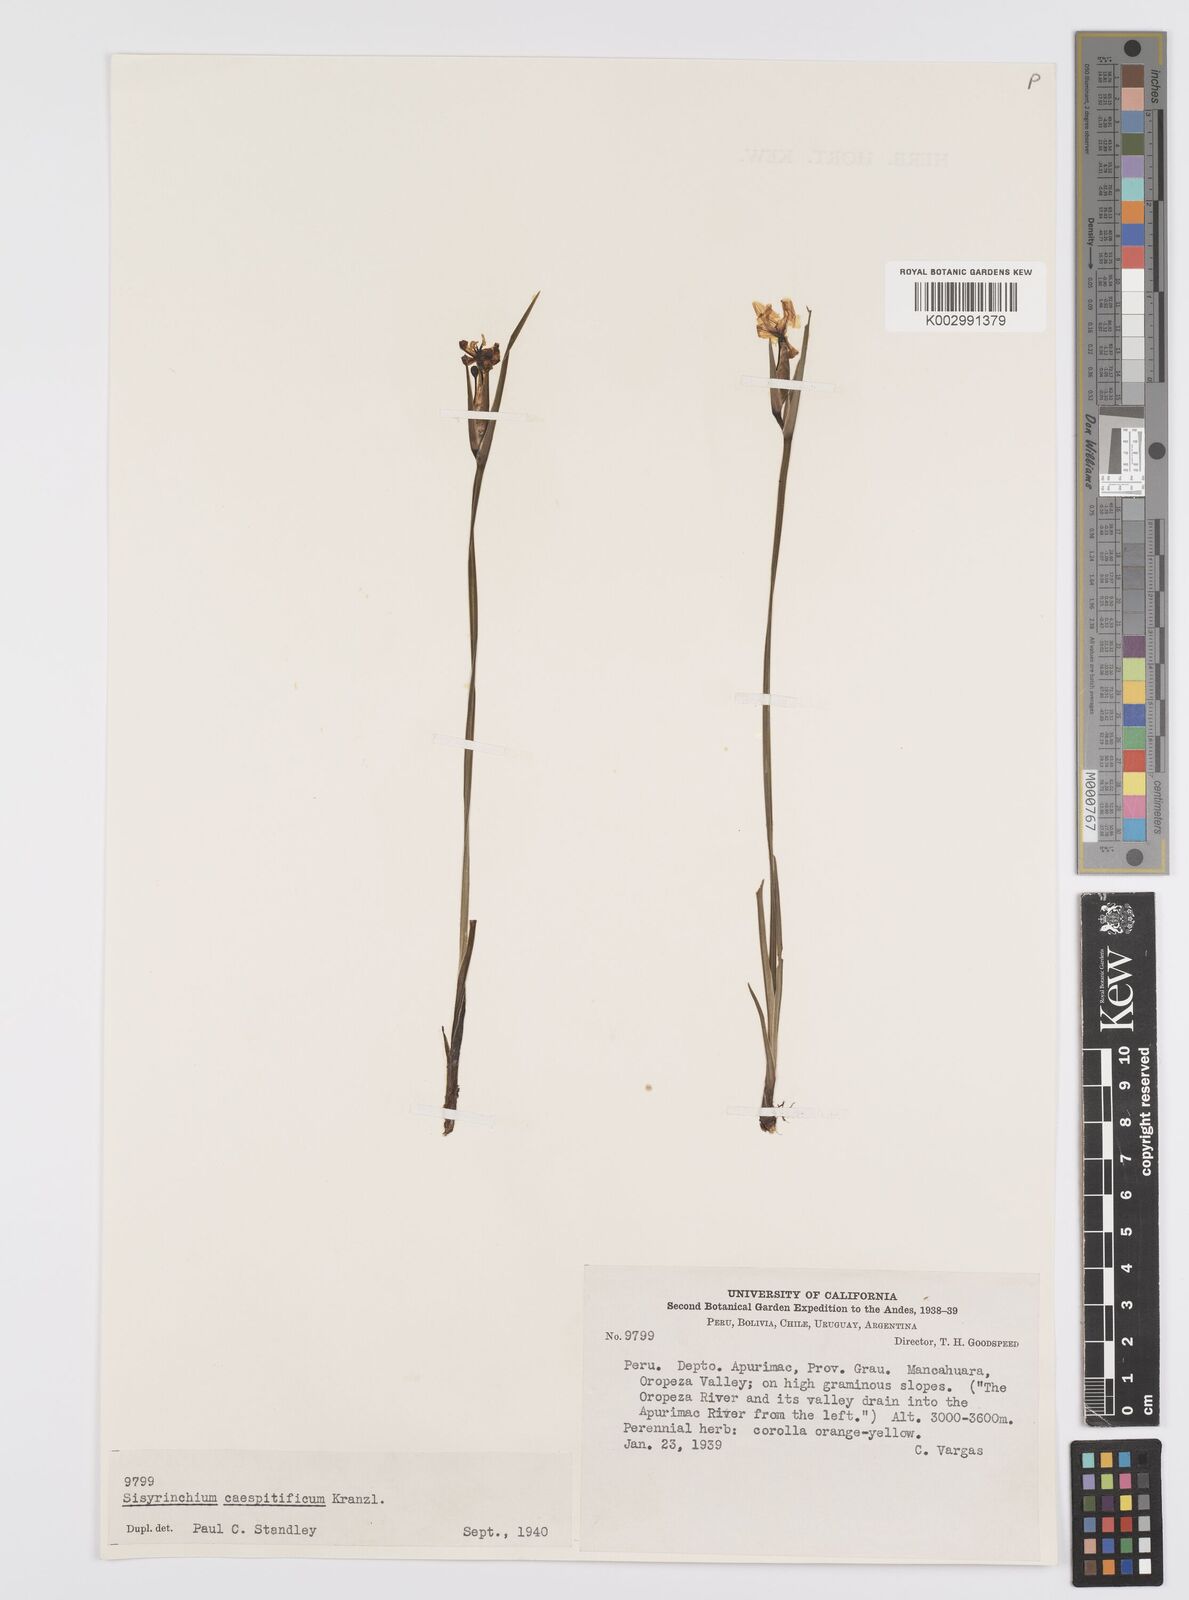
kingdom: Plantae
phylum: Tracheophyta
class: Liliopsida
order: Asparagales
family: Iridaceae
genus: Olsynium
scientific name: Olsynium
